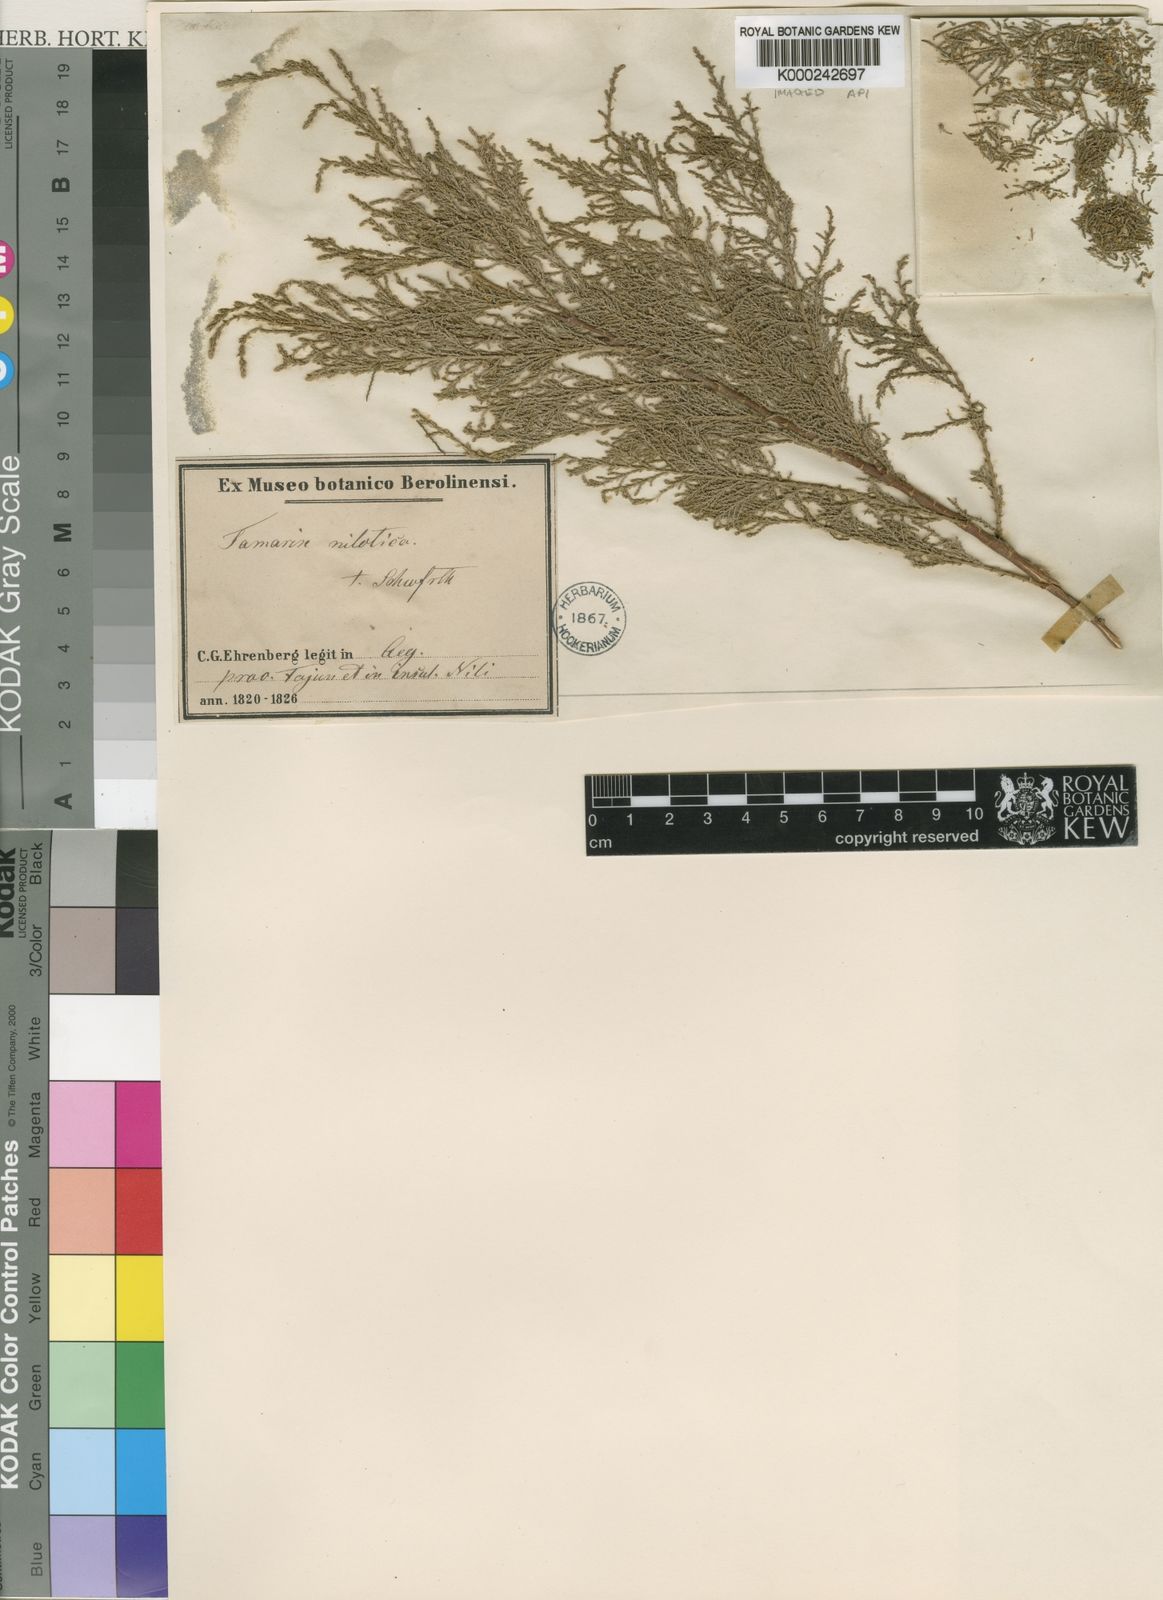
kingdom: Plantae
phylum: Tracheophyta
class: Magnoliopsida
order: Caryophyllales
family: Tamaricaceae
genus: Tamarix
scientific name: Tamarix nilotica
